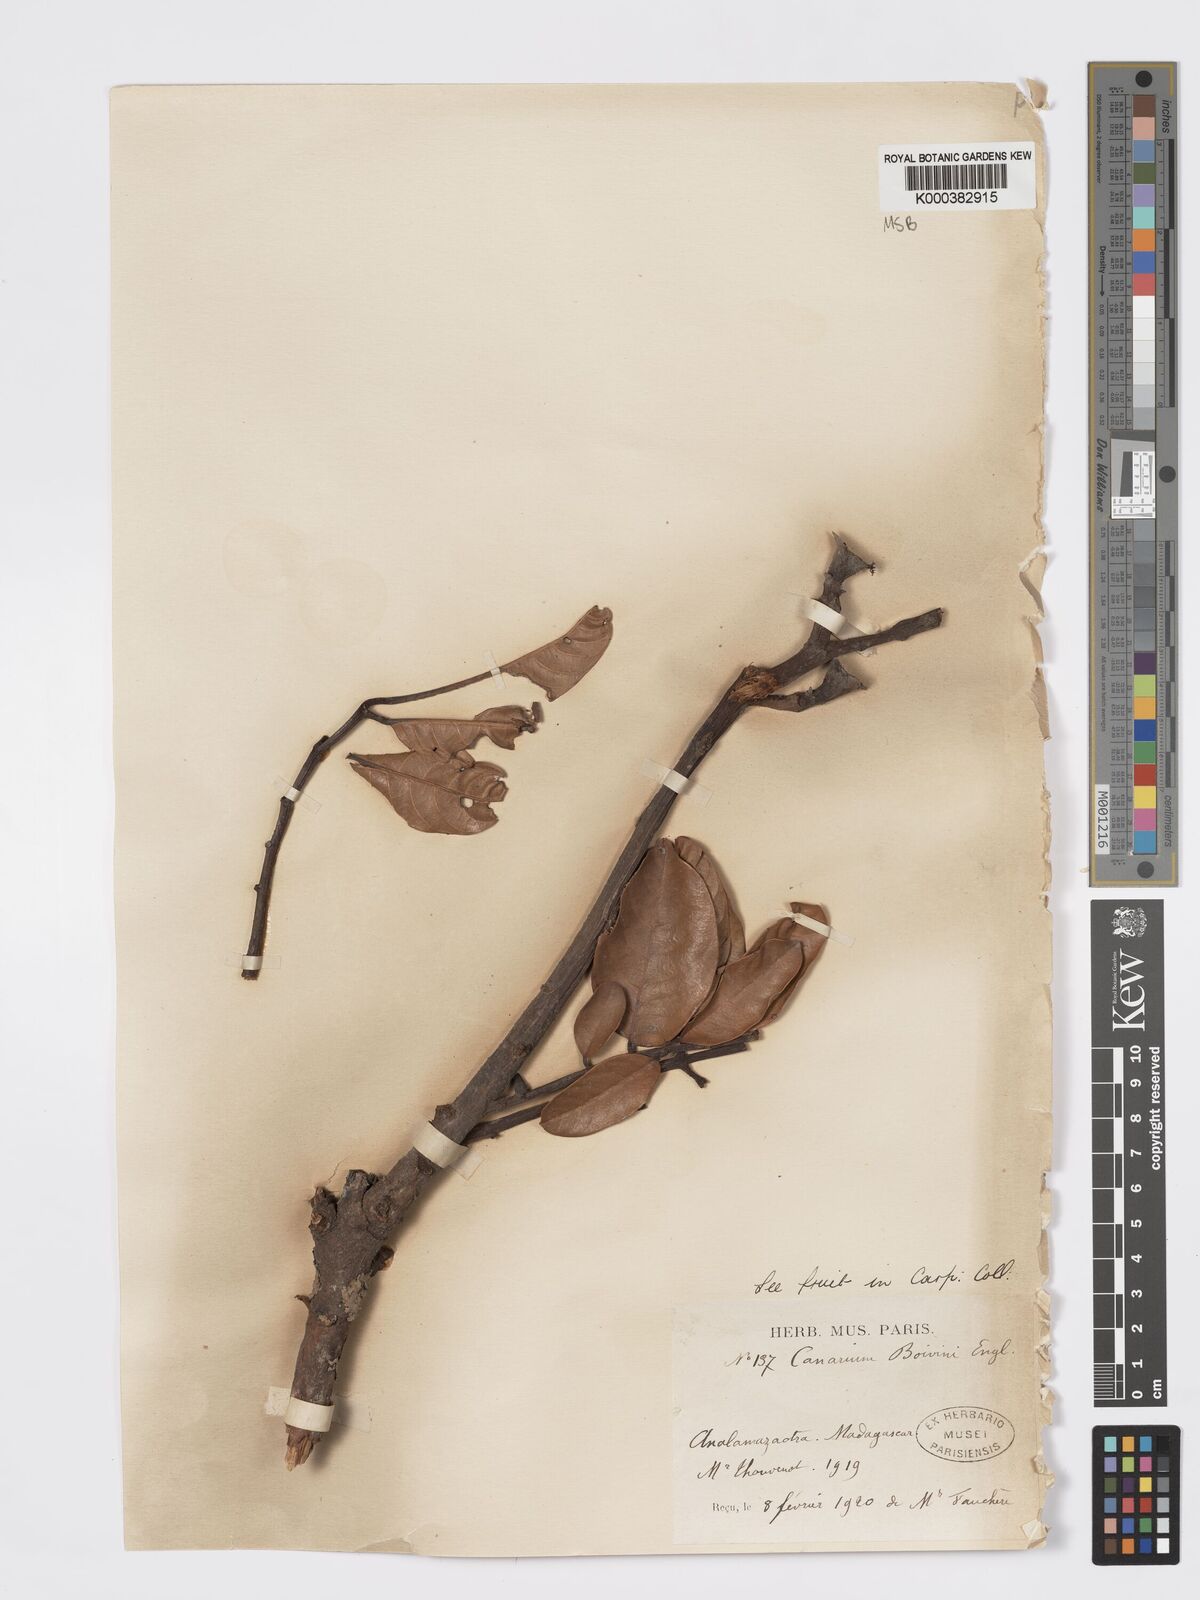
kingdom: Plantae
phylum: Tracheophyta
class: Magnoliopsida
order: Sapindales
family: Burseraceae
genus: Canarium
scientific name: Canarium madagascariense
